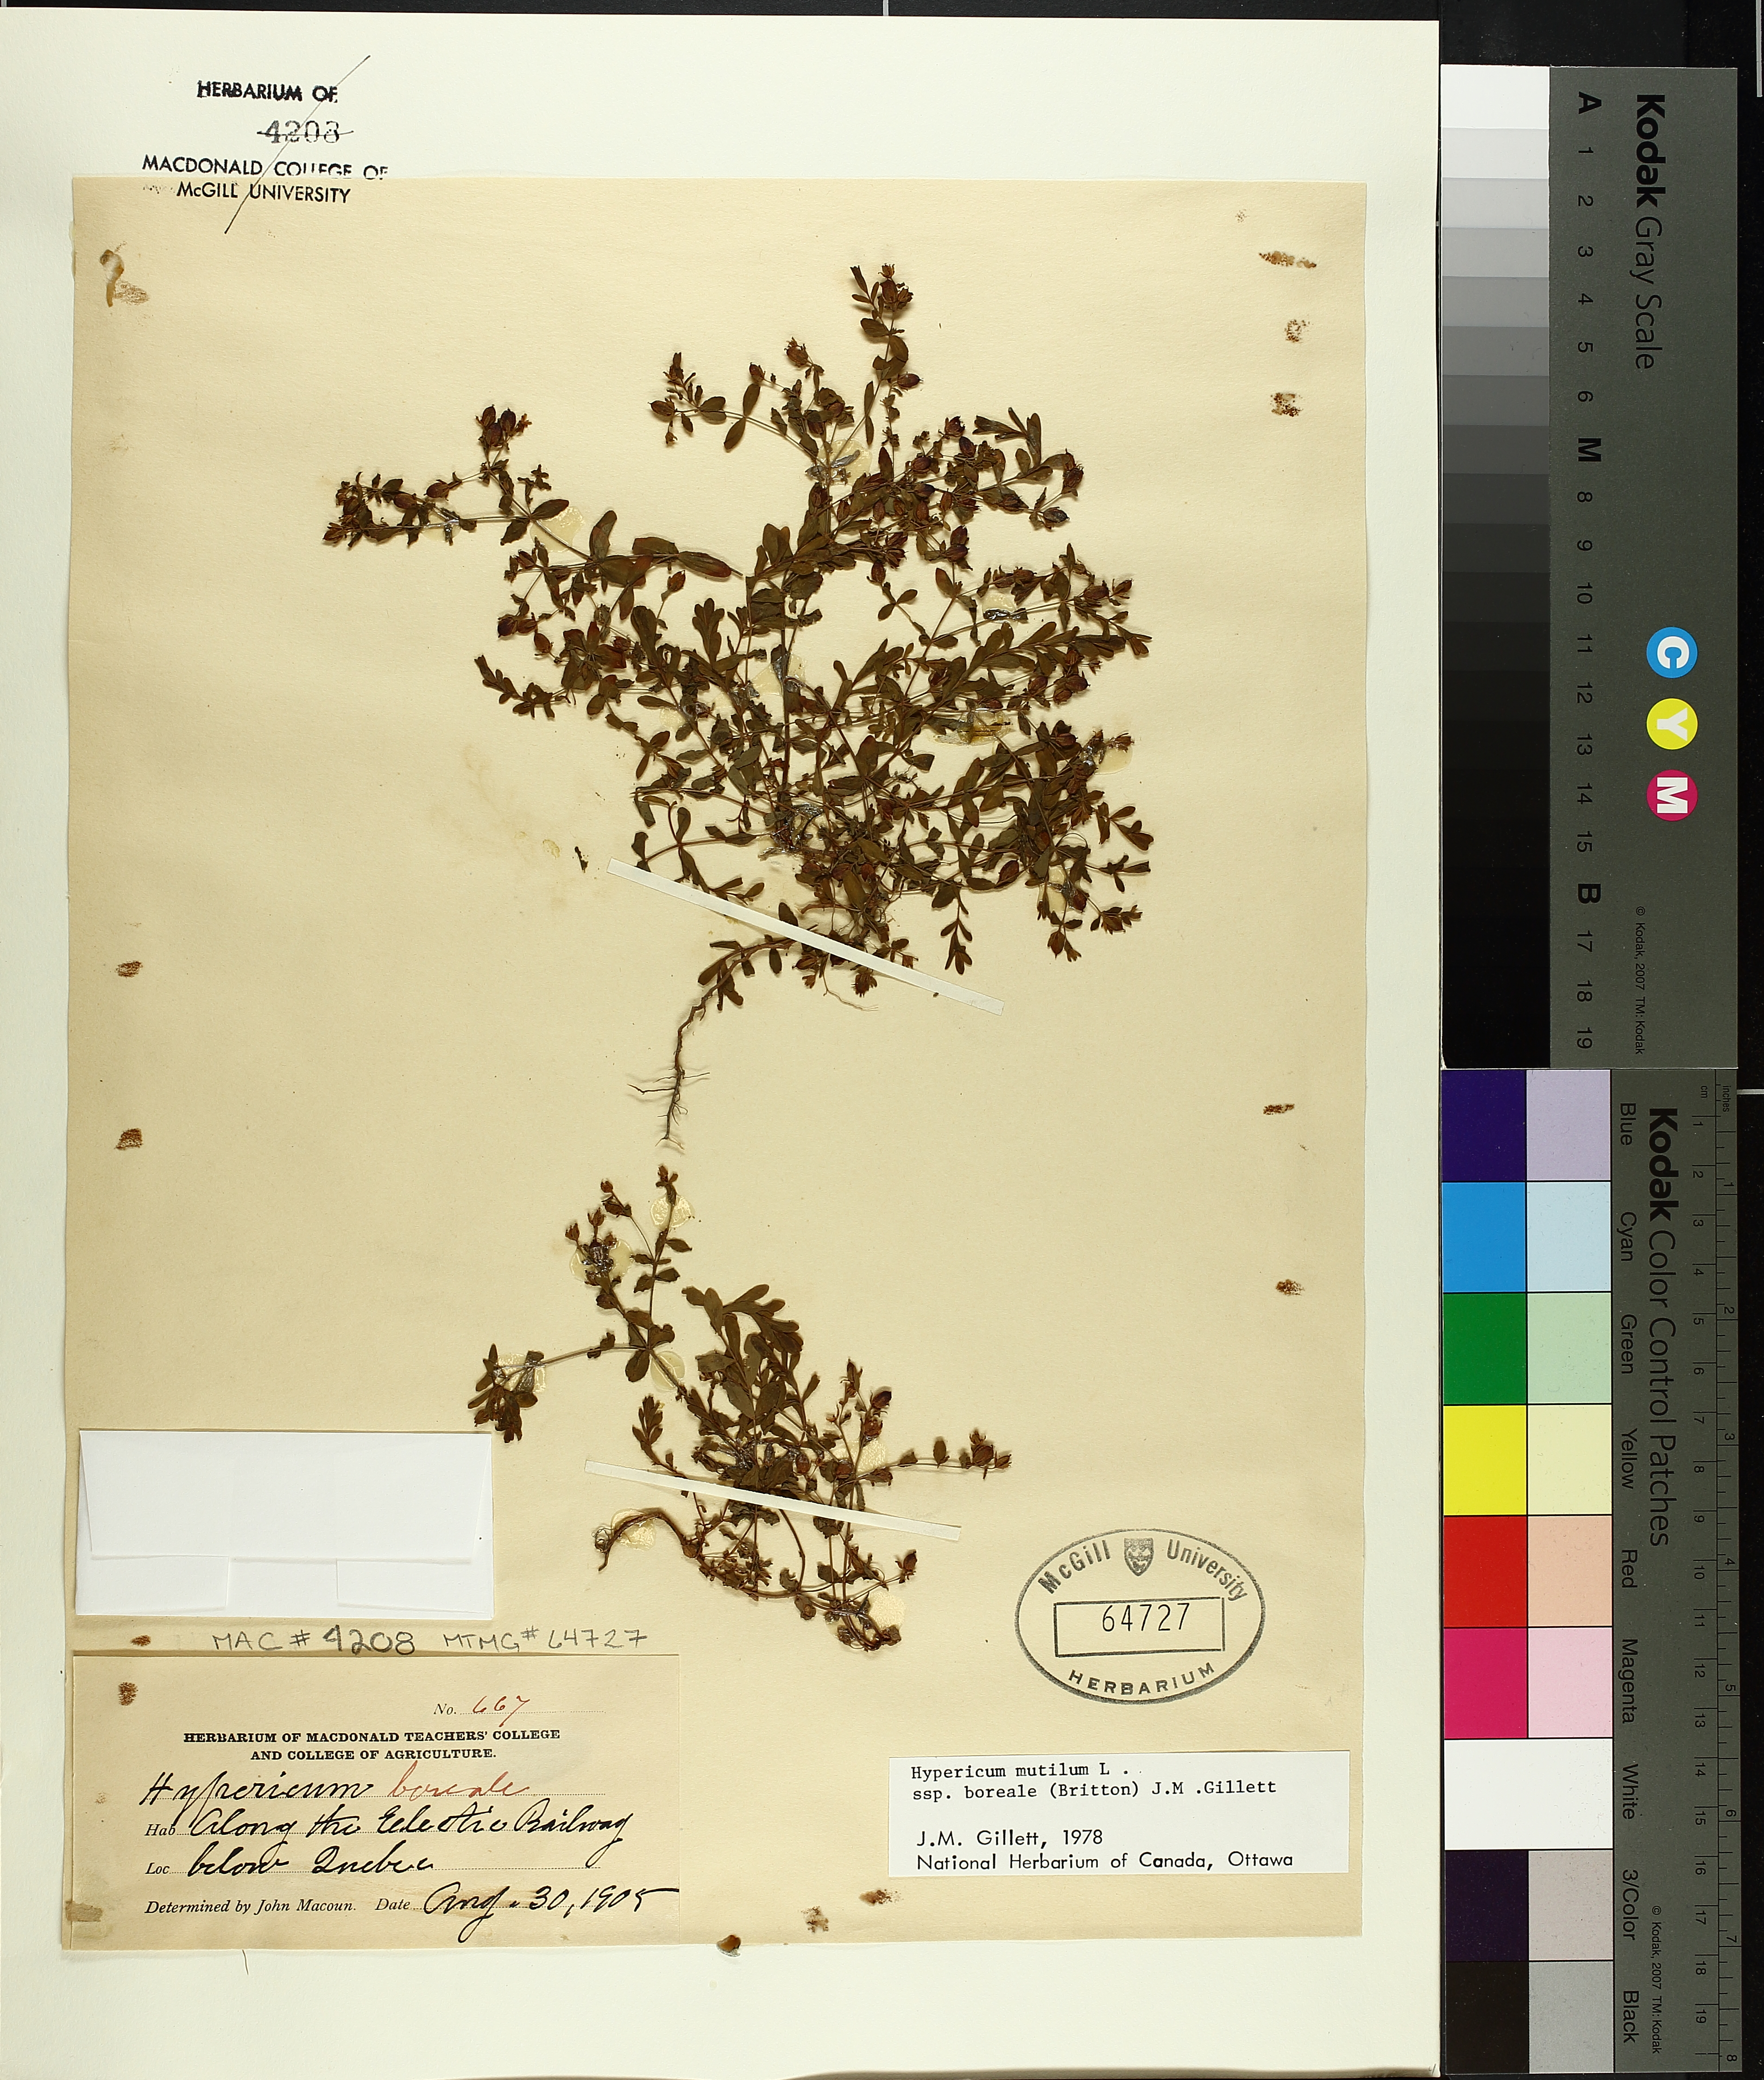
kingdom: Plantae
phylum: Tracheophyta
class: Magnoliopsida
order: Malpighiales
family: Hypericaceae
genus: Hypericum
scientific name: Hypericum boreale
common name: Northern bog st. john's-wort
